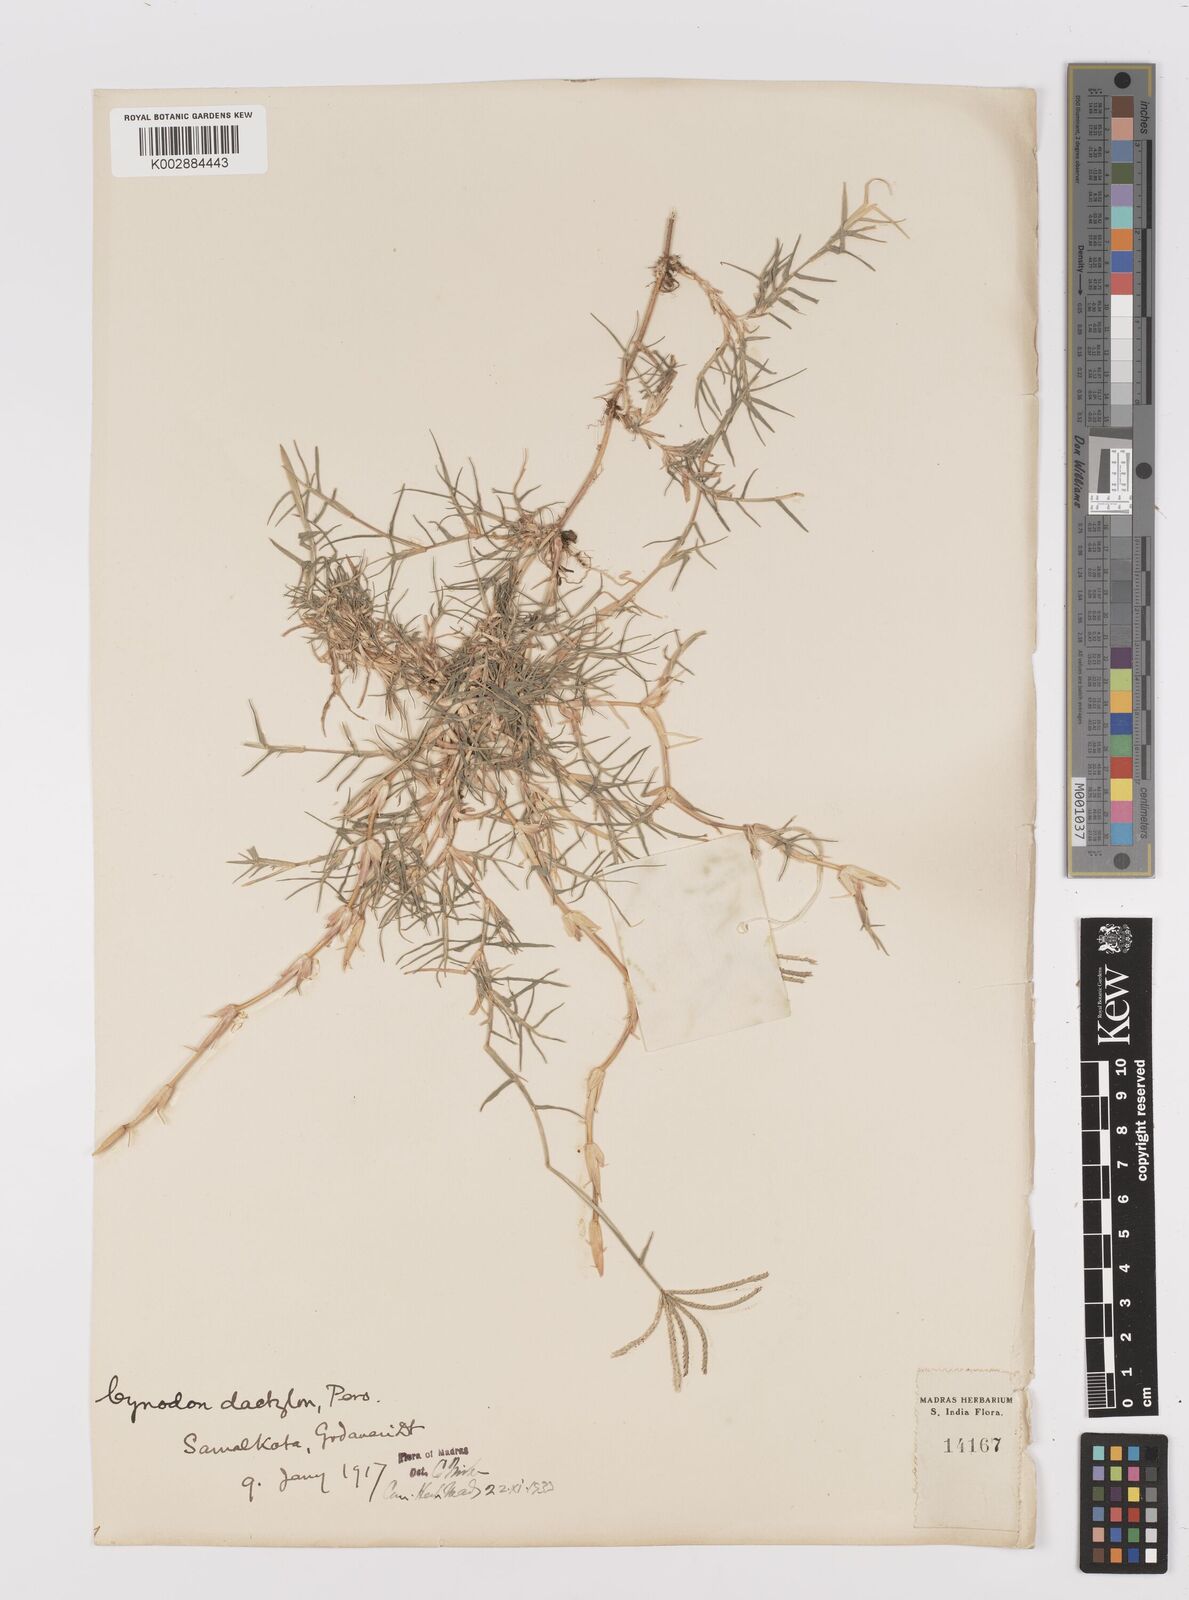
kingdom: Plantae
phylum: Tracheophyta
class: Liliopsida
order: Poales
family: Poaceae
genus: Cynodon
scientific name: Cynodon dactylon
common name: Bermuda grass
